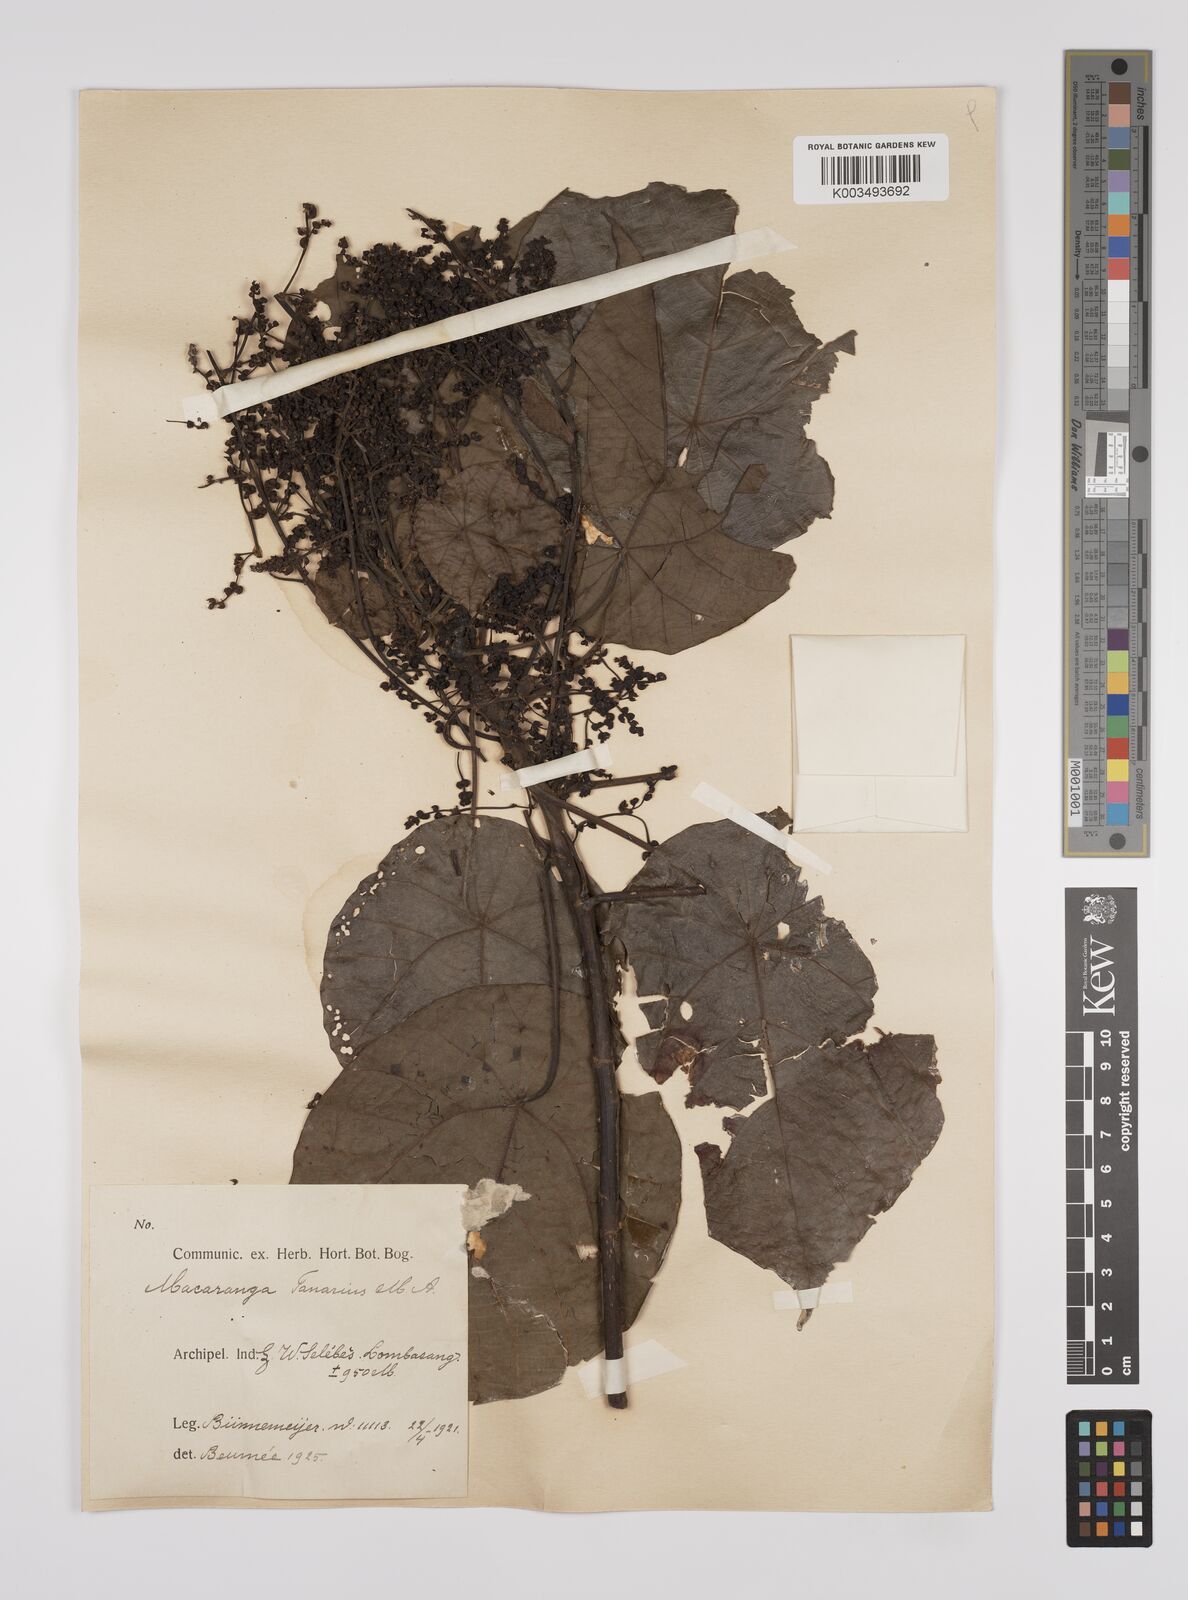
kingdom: Plantae
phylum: Tracheophyta
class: Magnoliopsida
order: Malpighiales
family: Euphorbiaceae
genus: Macaranga
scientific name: Macaranga tanarius
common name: Parasol leaf tree
